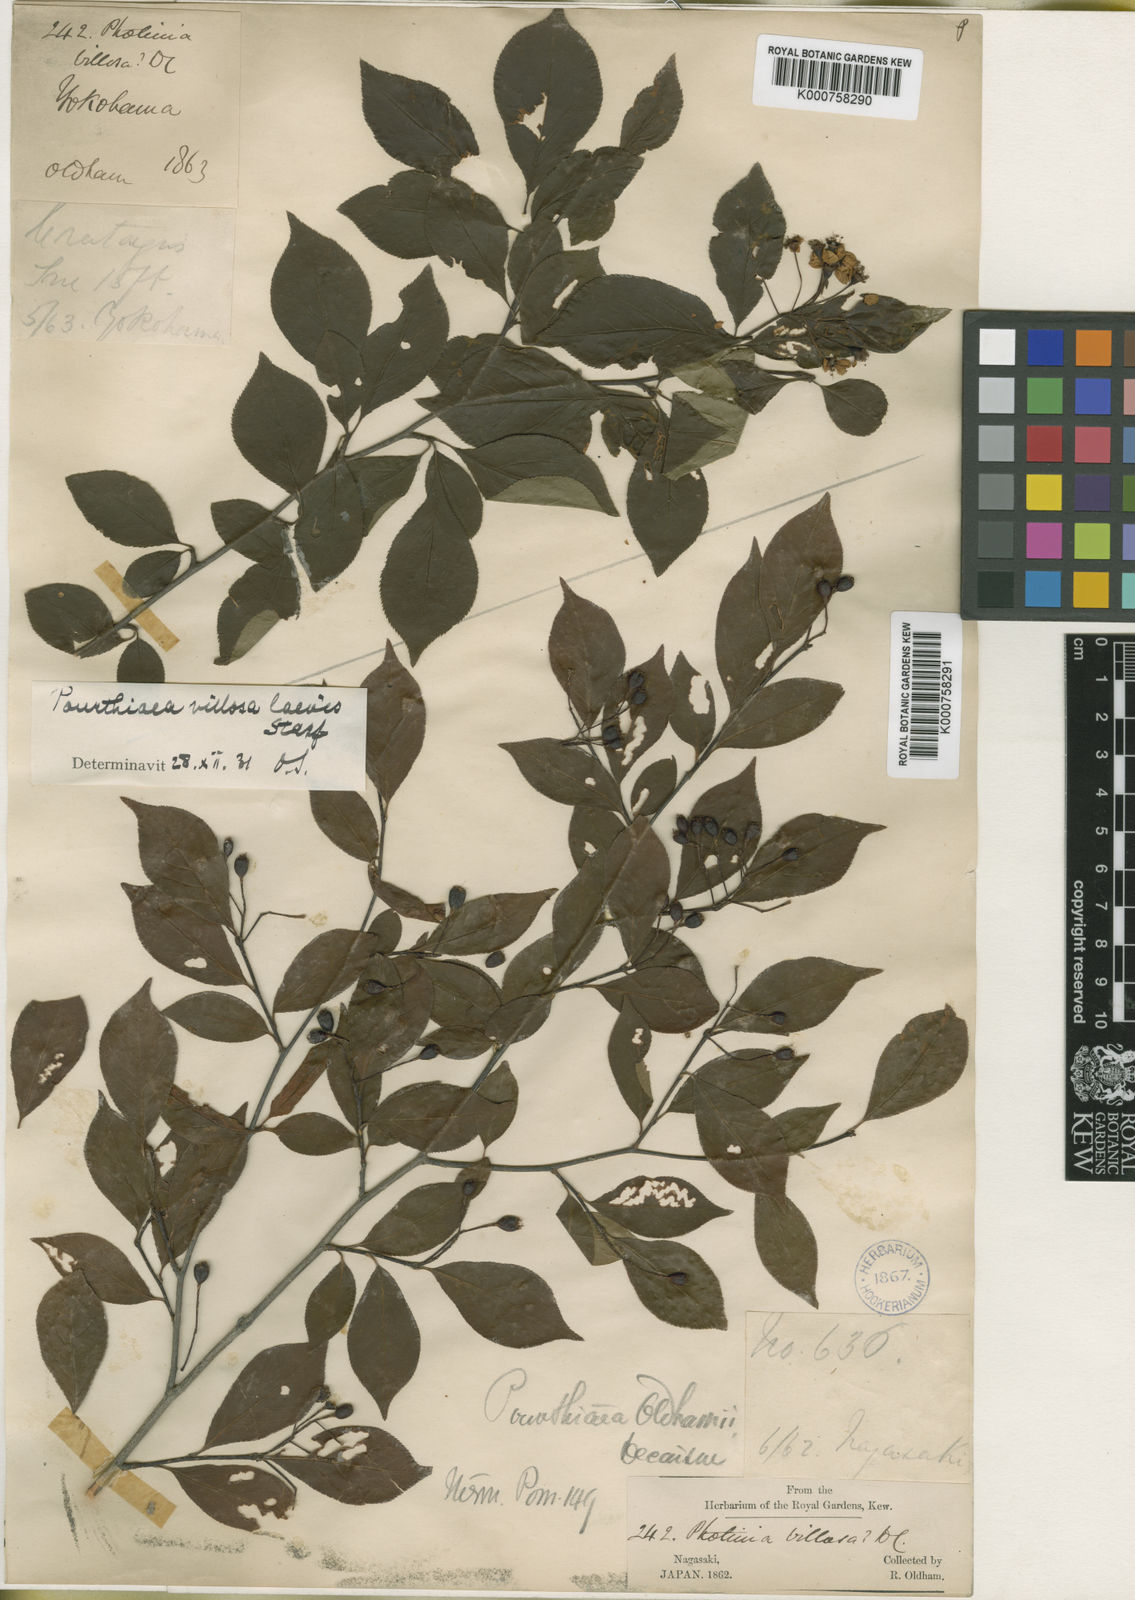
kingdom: Plantae
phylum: Tracheophyta
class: Magnoliopsida
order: Rosales
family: Rosaceae
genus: Pourthiaea
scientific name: Pourthiaea villosa
